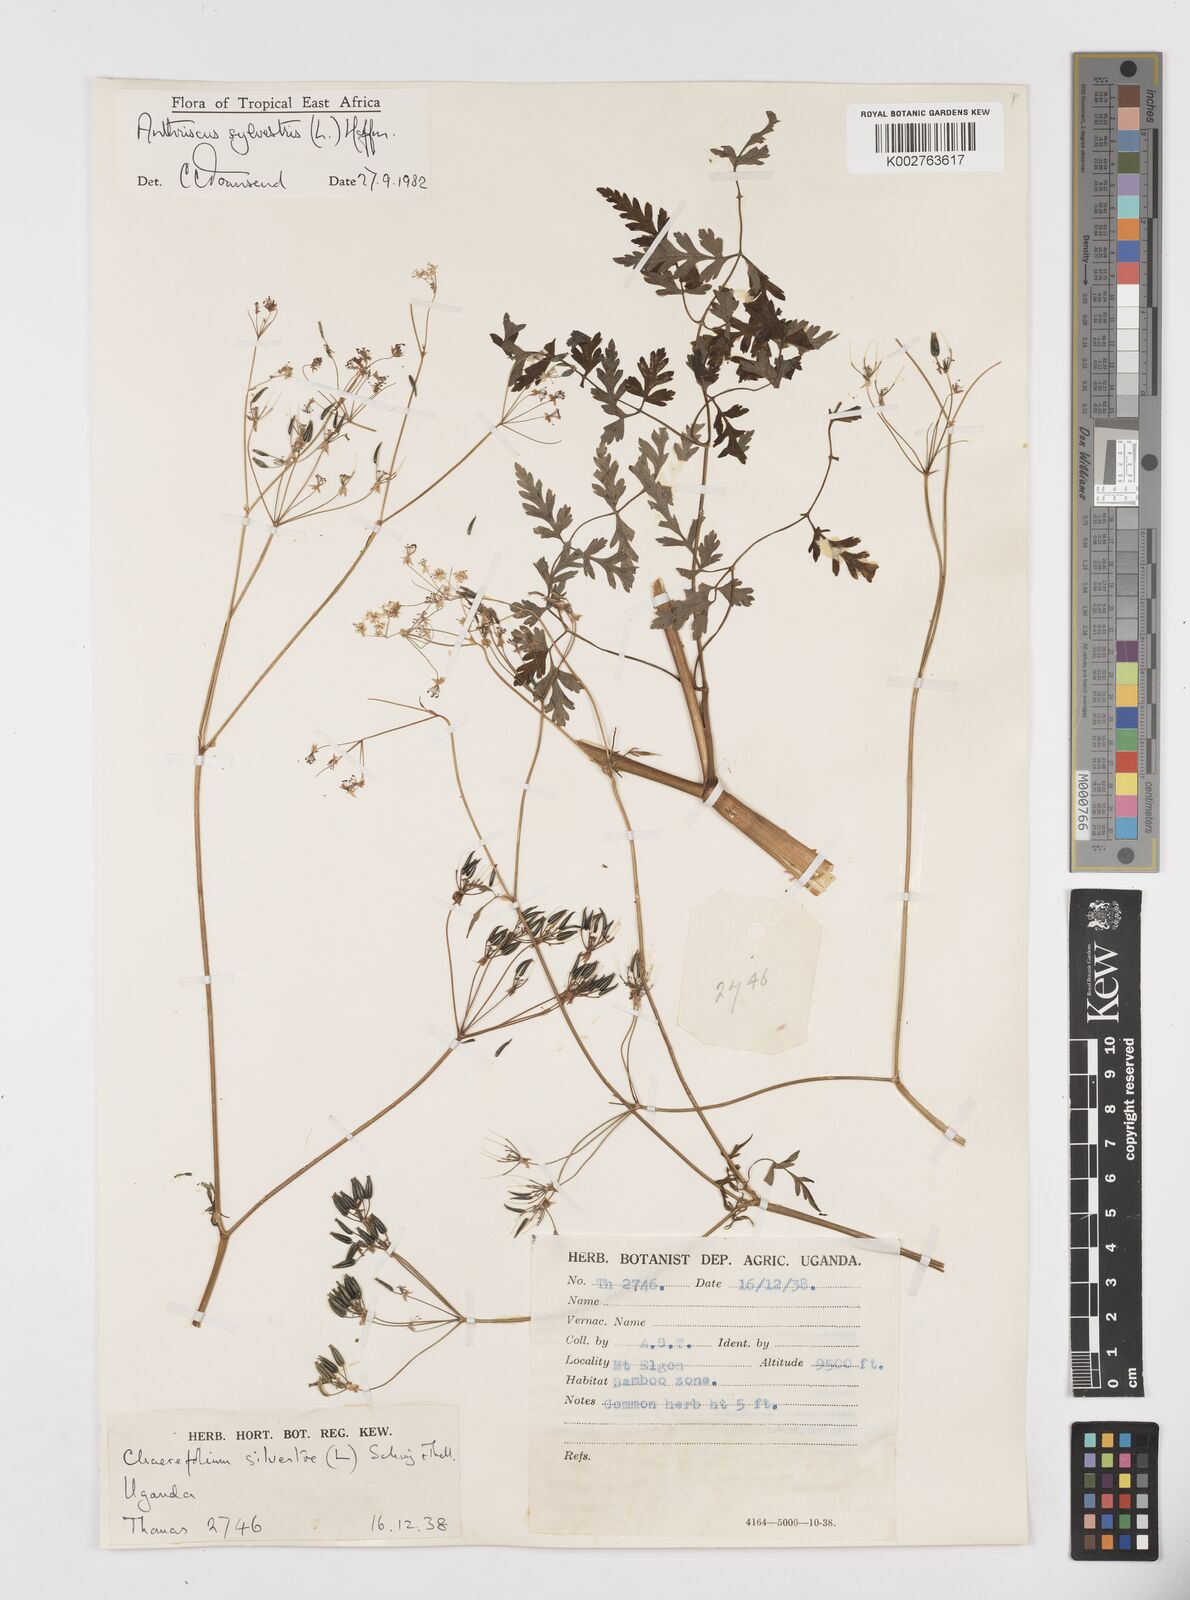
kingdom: Plantae
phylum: Tracheophyta
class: Magnoliopsida
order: Apiales
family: Apiaceae
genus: Anthriscus
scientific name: Anthriscus sylvestris
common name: Cow parsley
